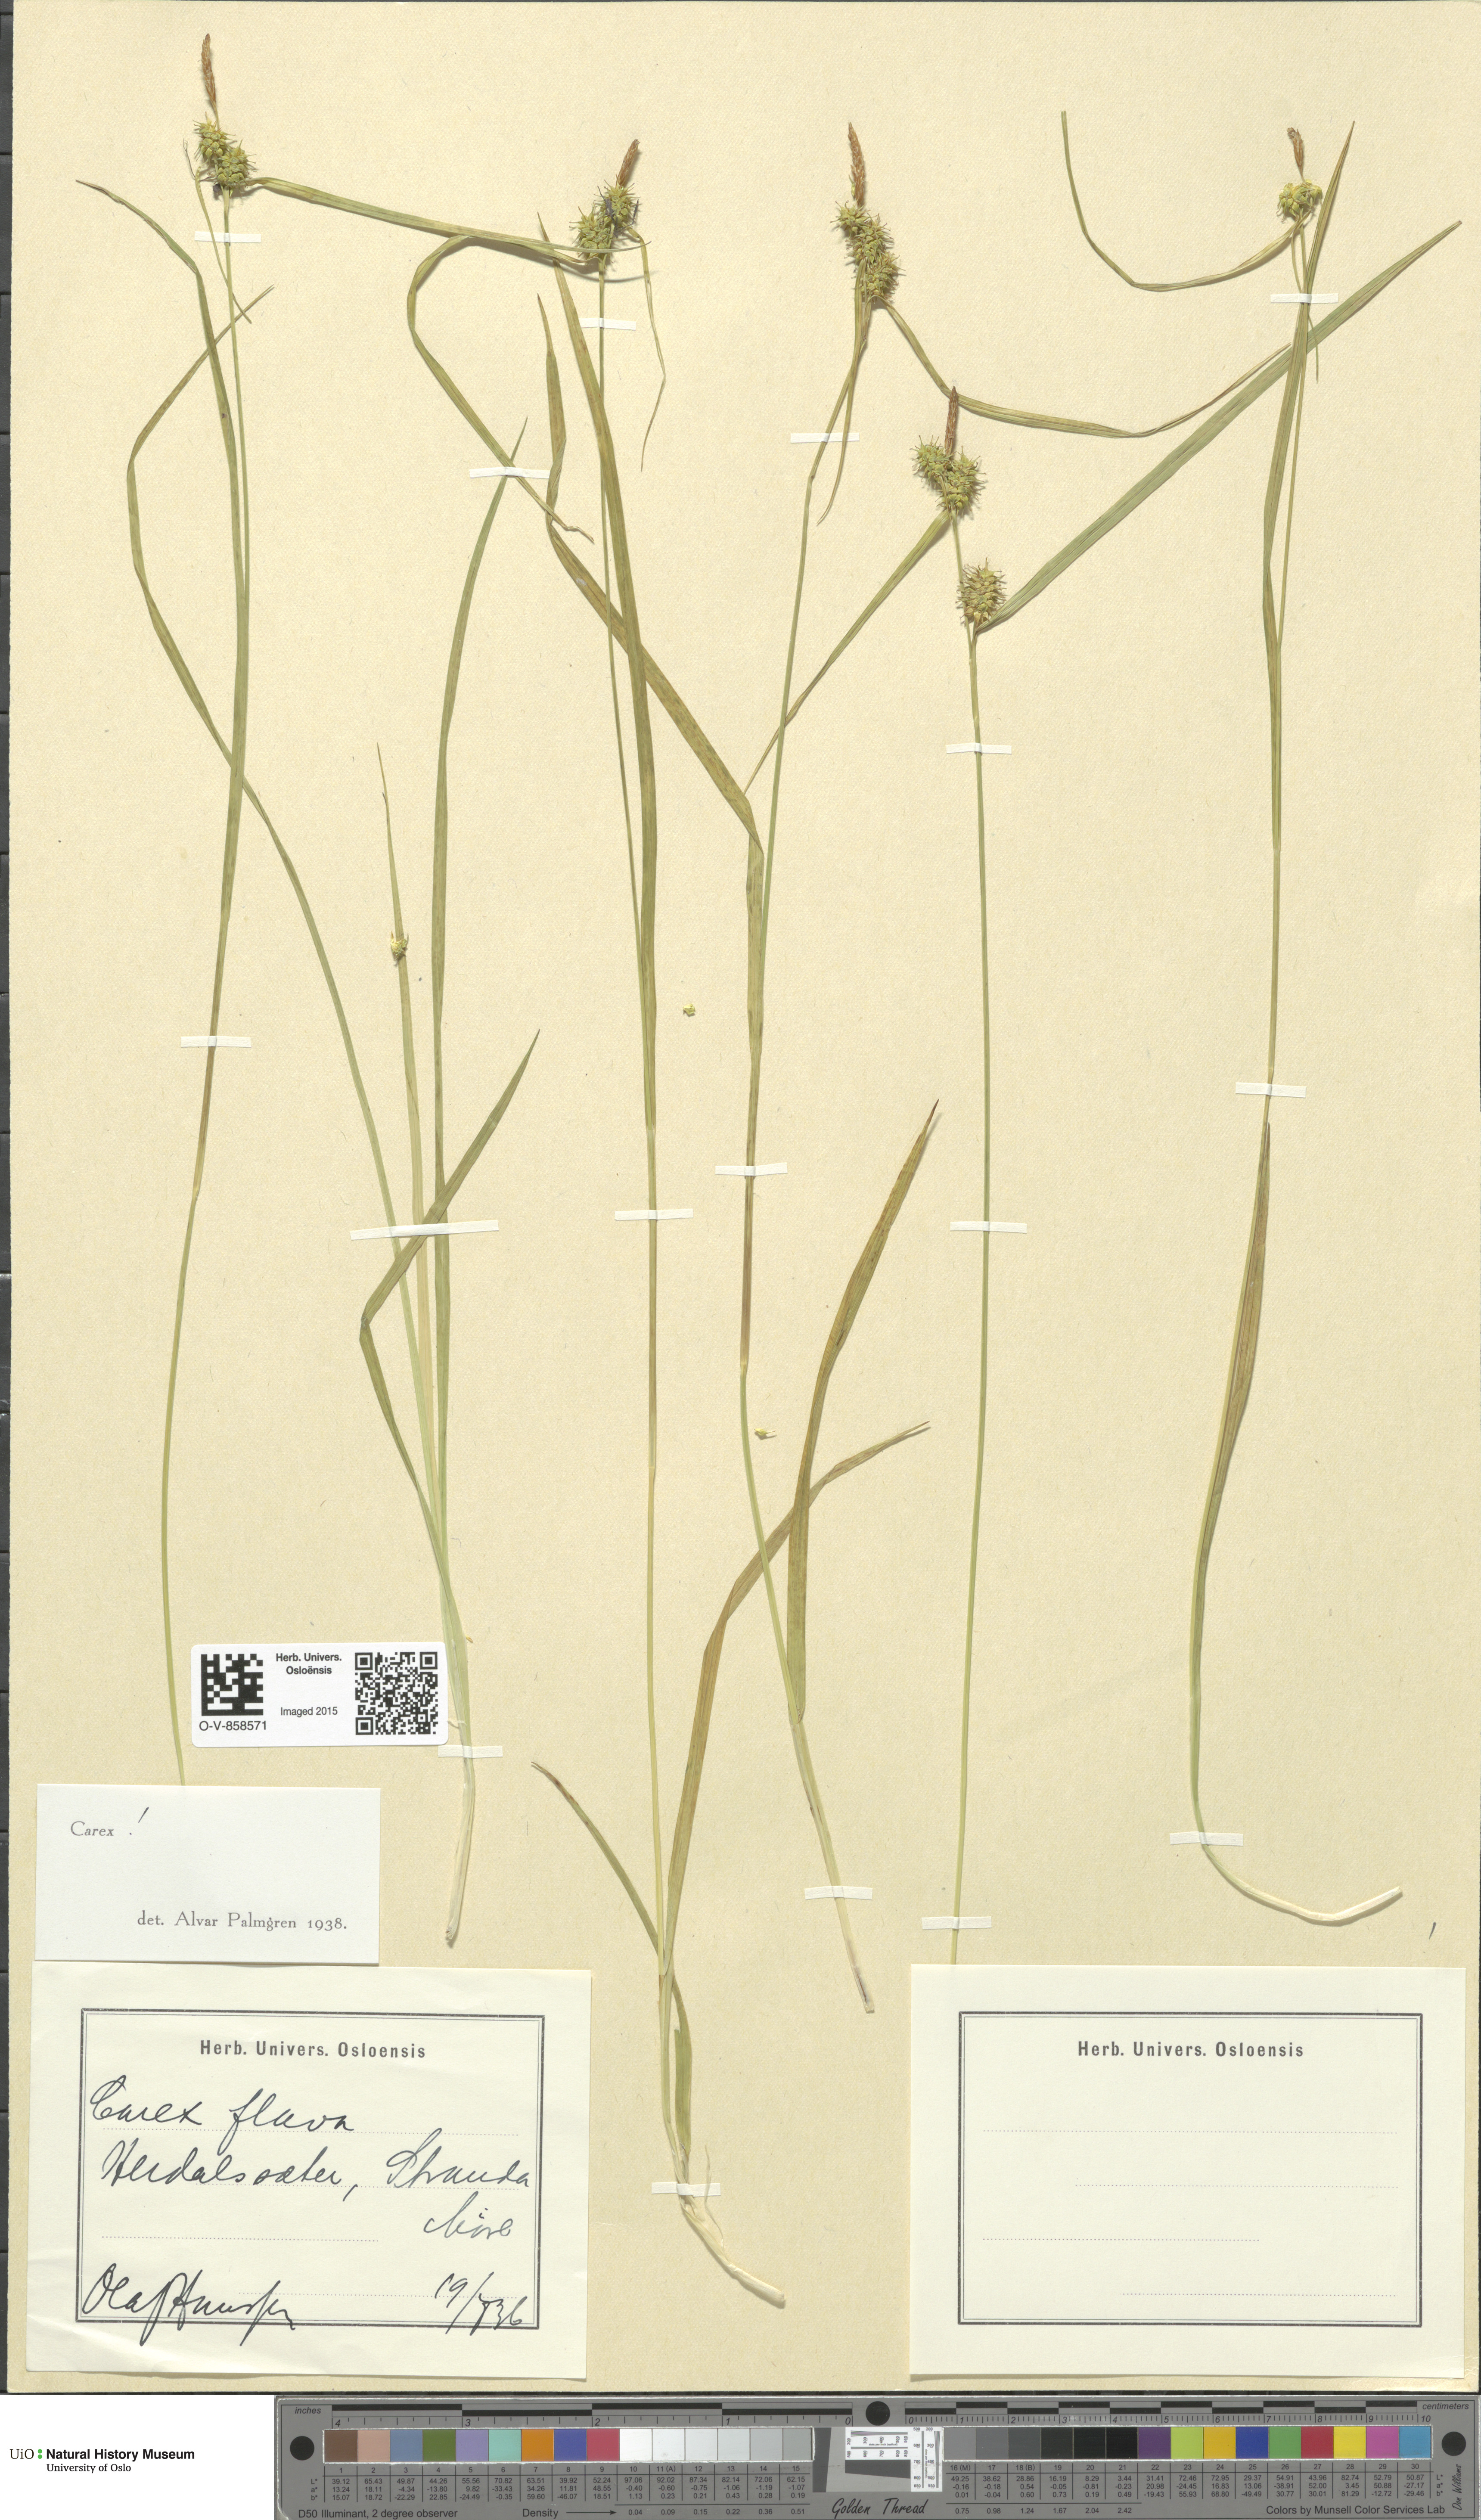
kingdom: Plantae
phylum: Tracheophyta
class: Liliopsida
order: Poales
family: Cyperaceae
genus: Carex
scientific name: Carex flava
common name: Large yellow-sedge
